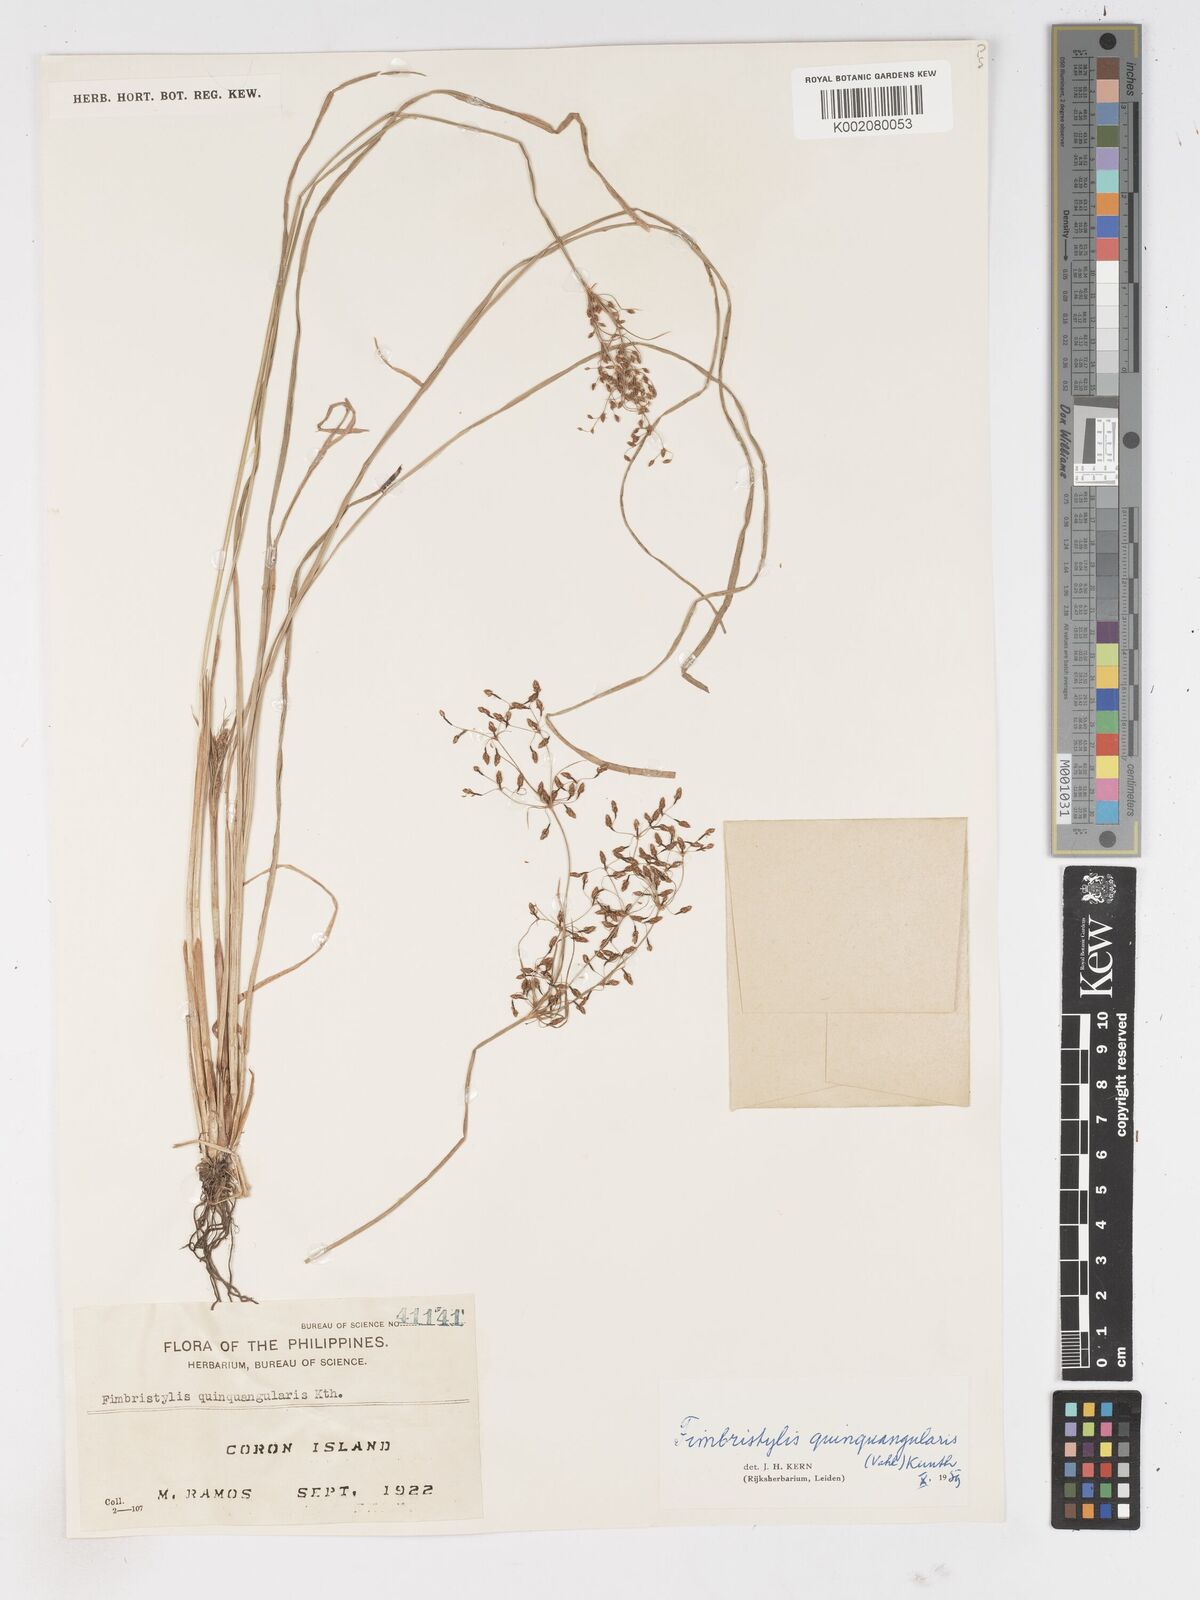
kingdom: Plantae
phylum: Tracheophyta
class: Liliopsida
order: Poales
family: Cyperaceae
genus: Fimbristylis
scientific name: Fimbristylis quinquangularis
